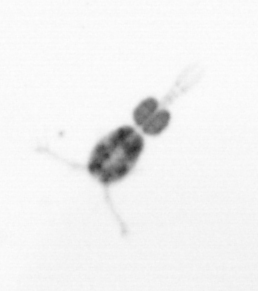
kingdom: Animalia
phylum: Arthropoda
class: Copepoda
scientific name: Copepoda
